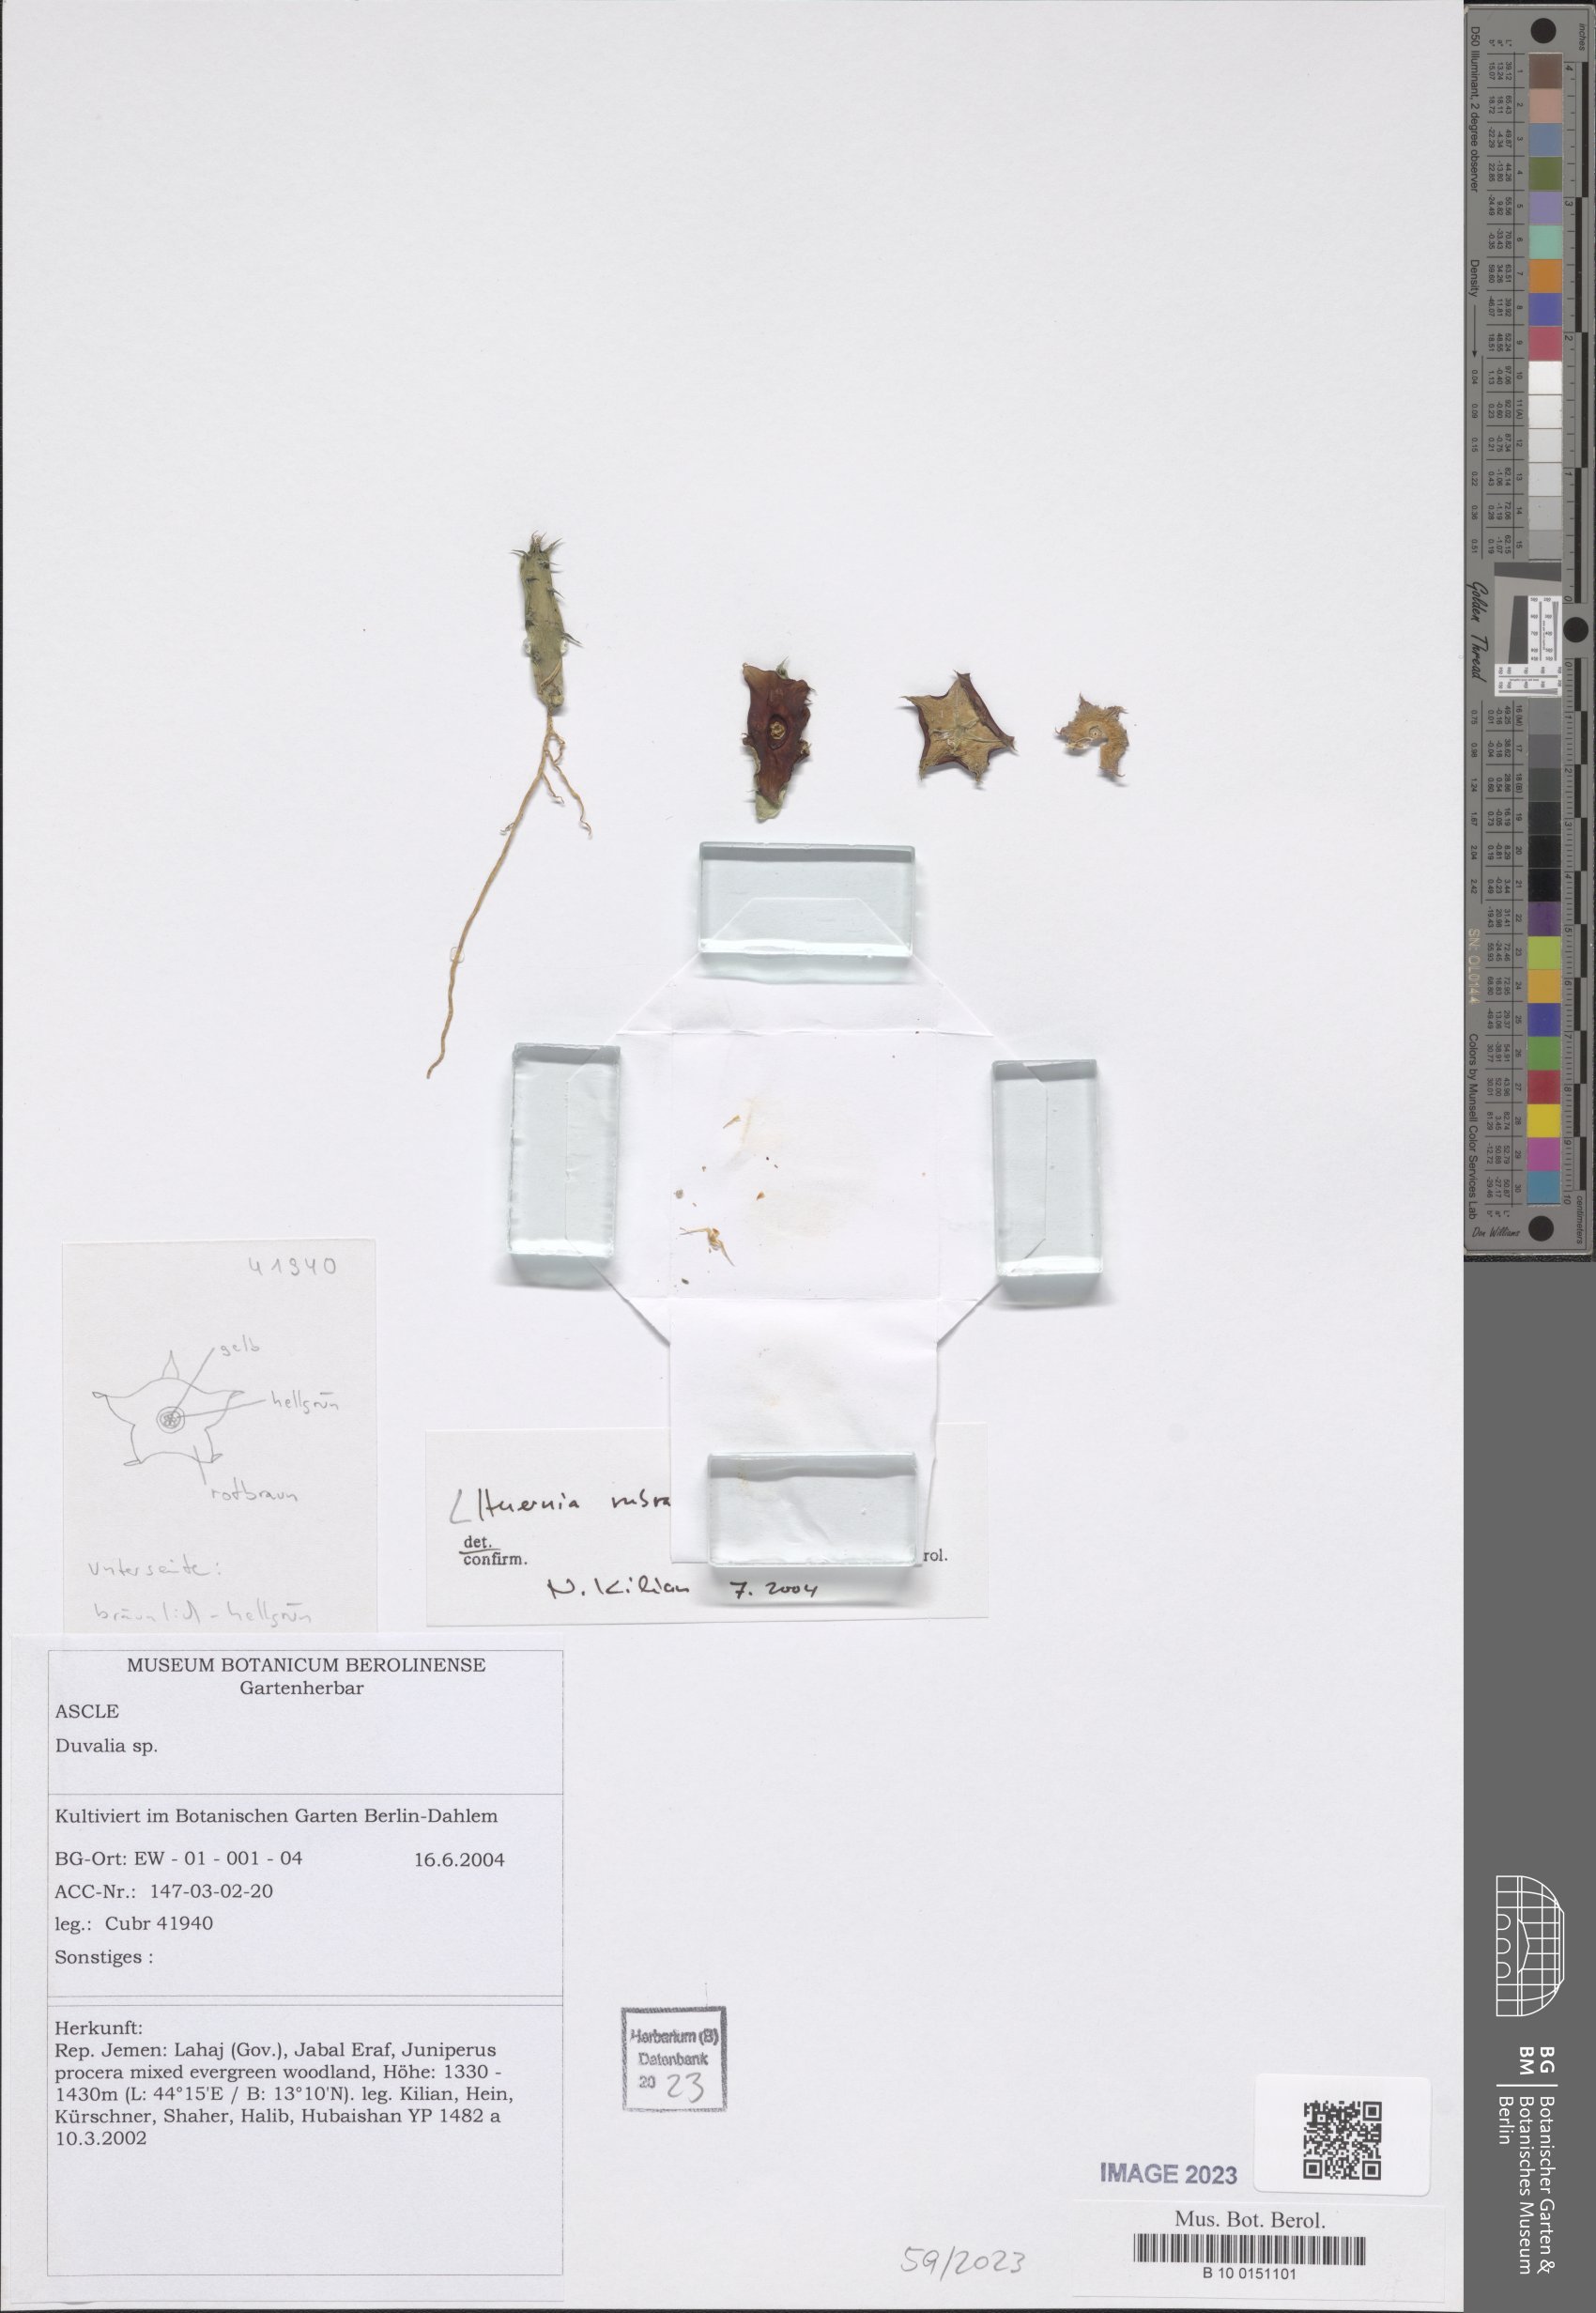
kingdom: Plantae
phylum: Tracheophyta
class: Magnoliopsida
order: Gentianales
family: Apocynaceae
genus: Ceropegia
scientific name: Ceropegia hadramautica
